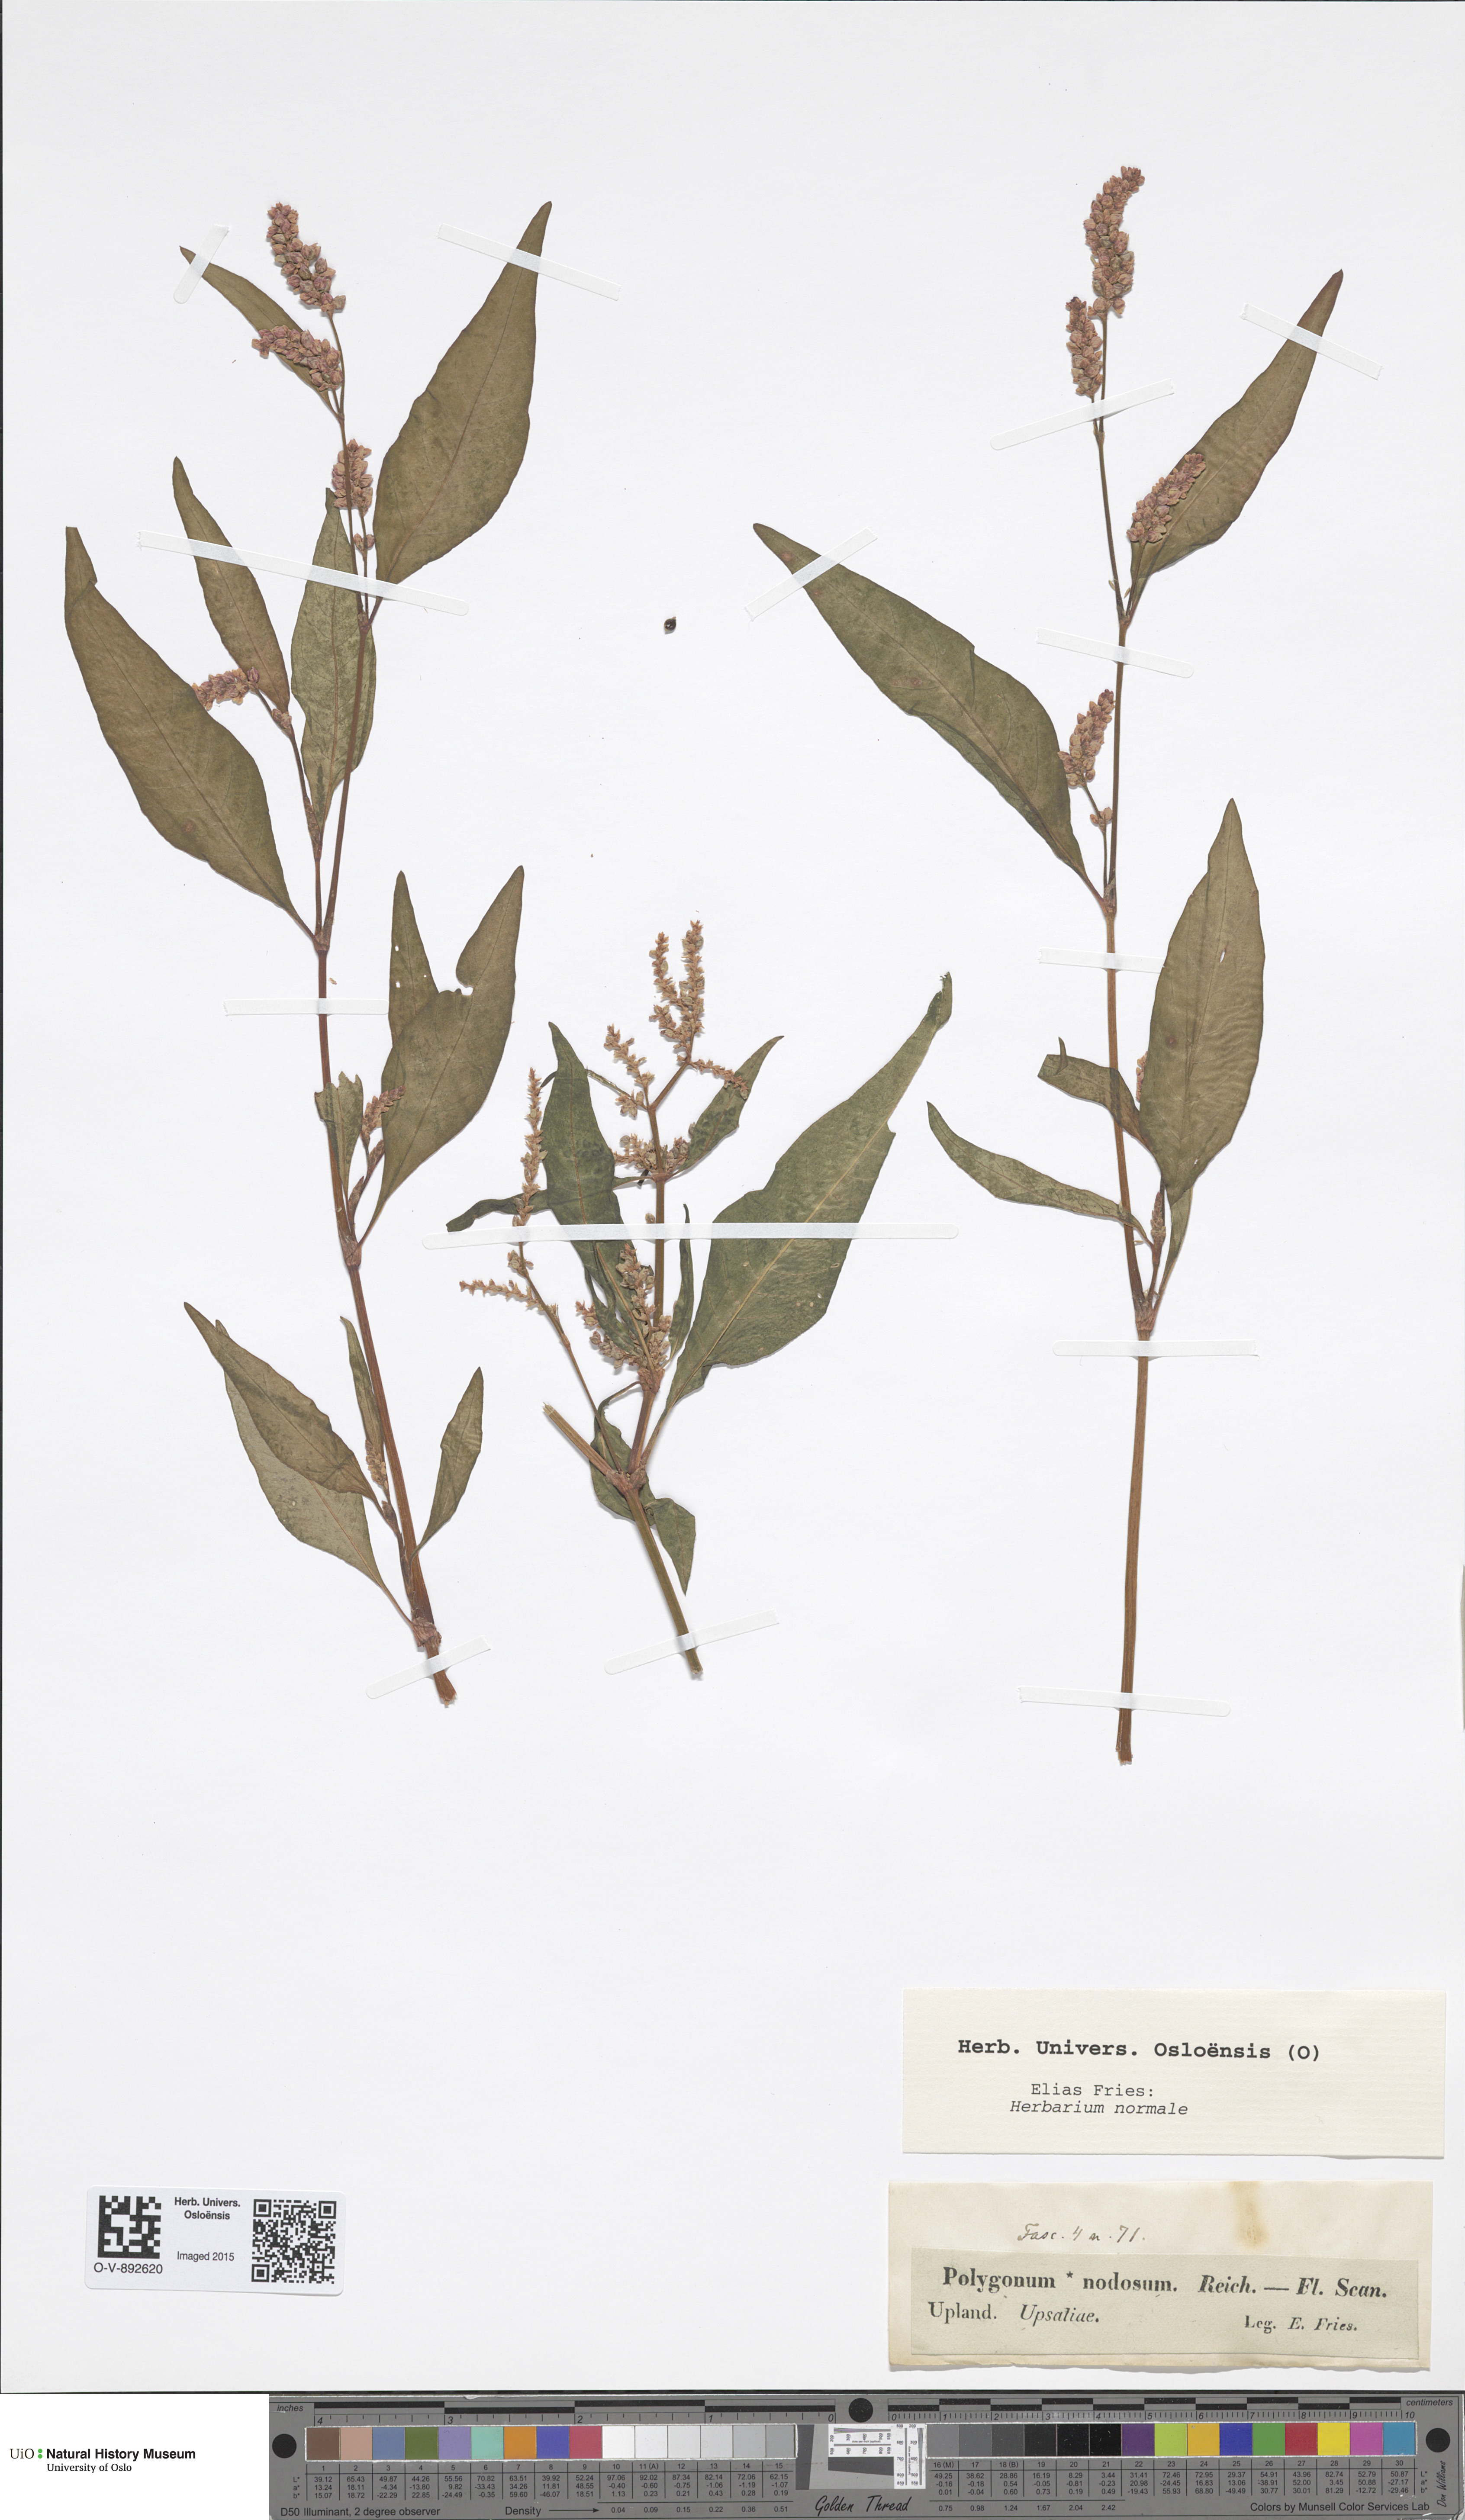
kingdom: Plantae
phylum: Tracheophyta
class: Magnoliopsida
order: Caryophyllales
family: Polygonaceae
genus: Persicaria
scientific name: Persicaria lapathifolia
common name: Curlytop knotweed
